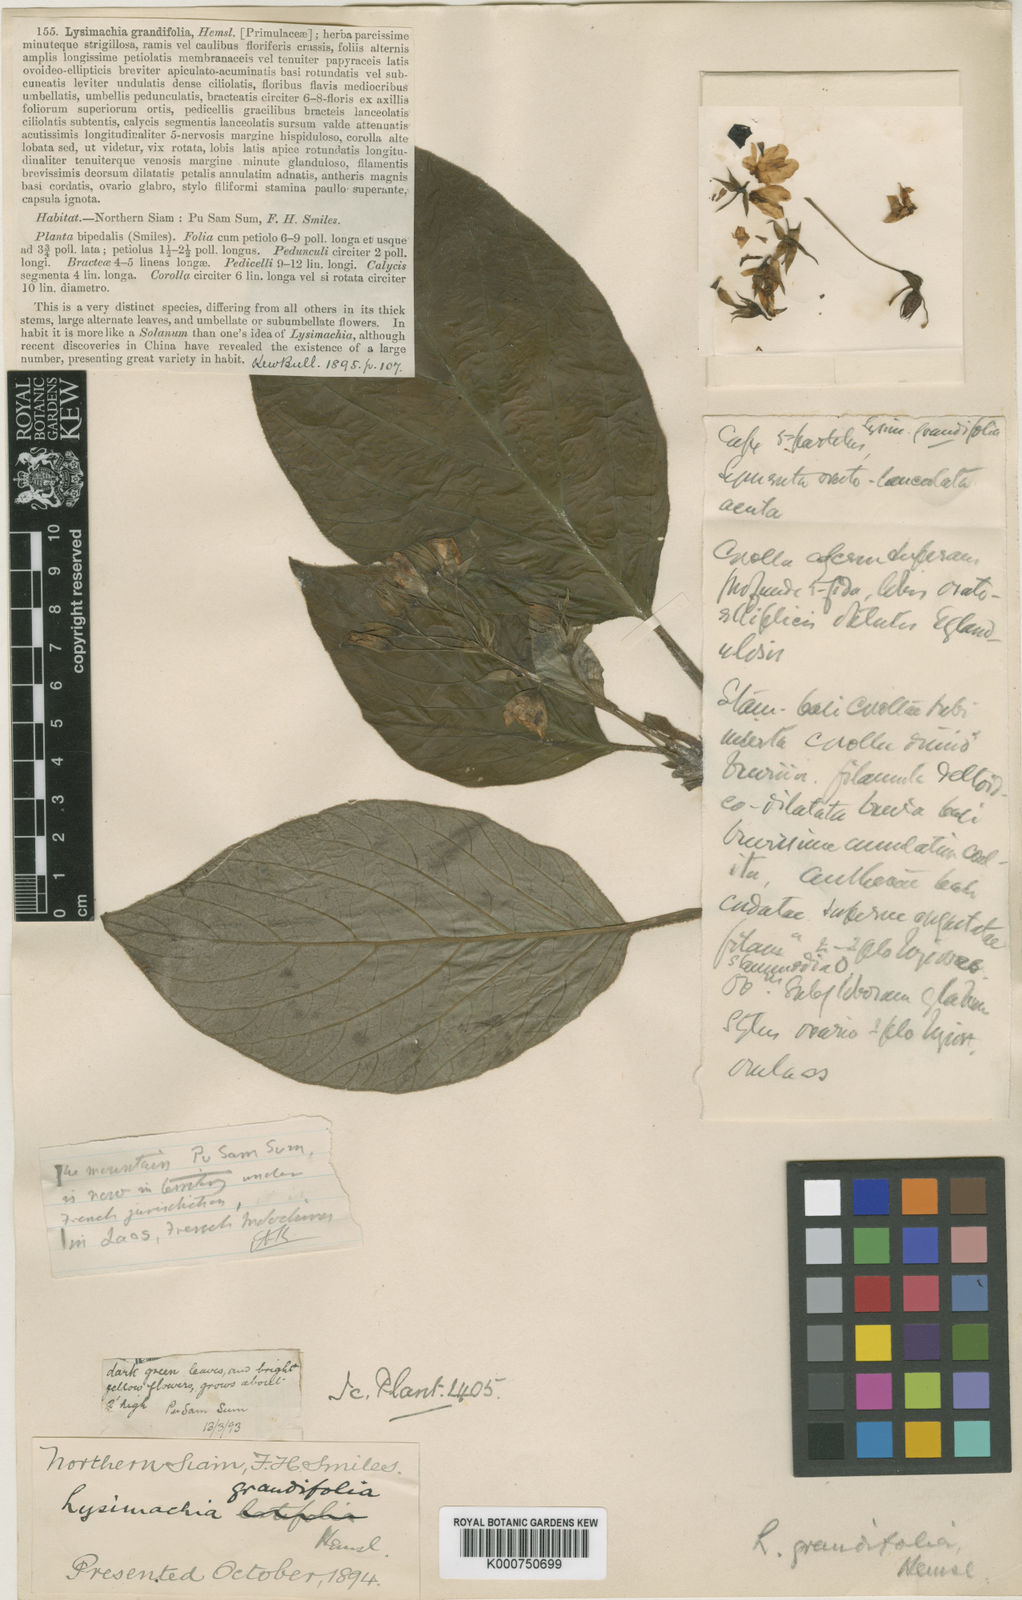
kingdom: Plantae
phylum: Tracheophyta
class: Magnoliopsida
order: Ericales
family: Primulaceae
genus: Lysimachia
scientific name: Lysimachia grandifolia
